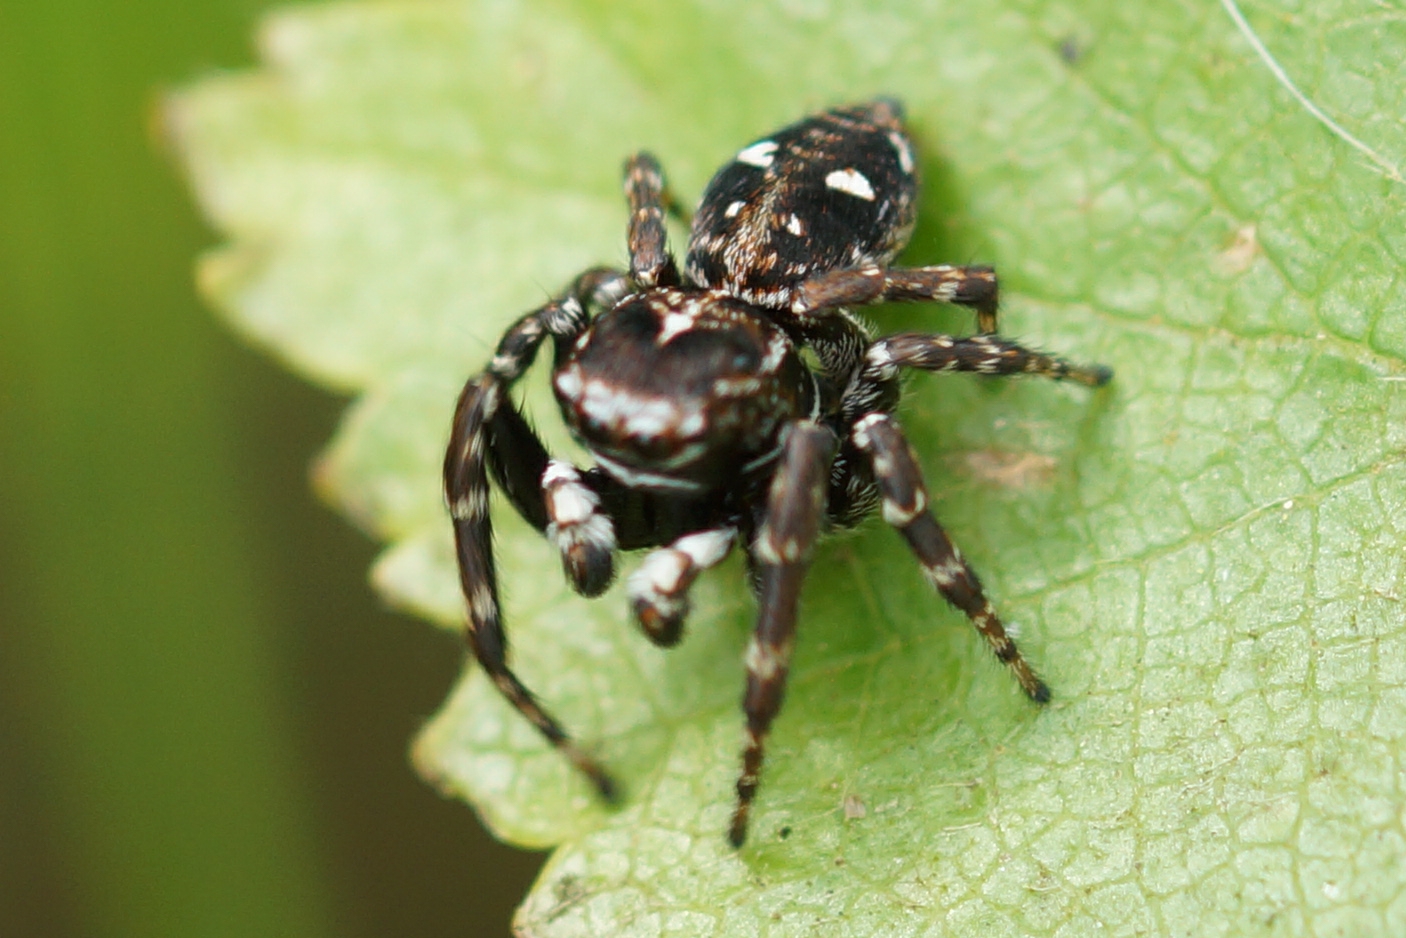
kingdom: Animalia
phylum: Arthropoda
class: Arachnida
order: Araneae
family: Salticidae
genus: Attulus
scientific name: Attulus floricola
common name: Mosespringer
